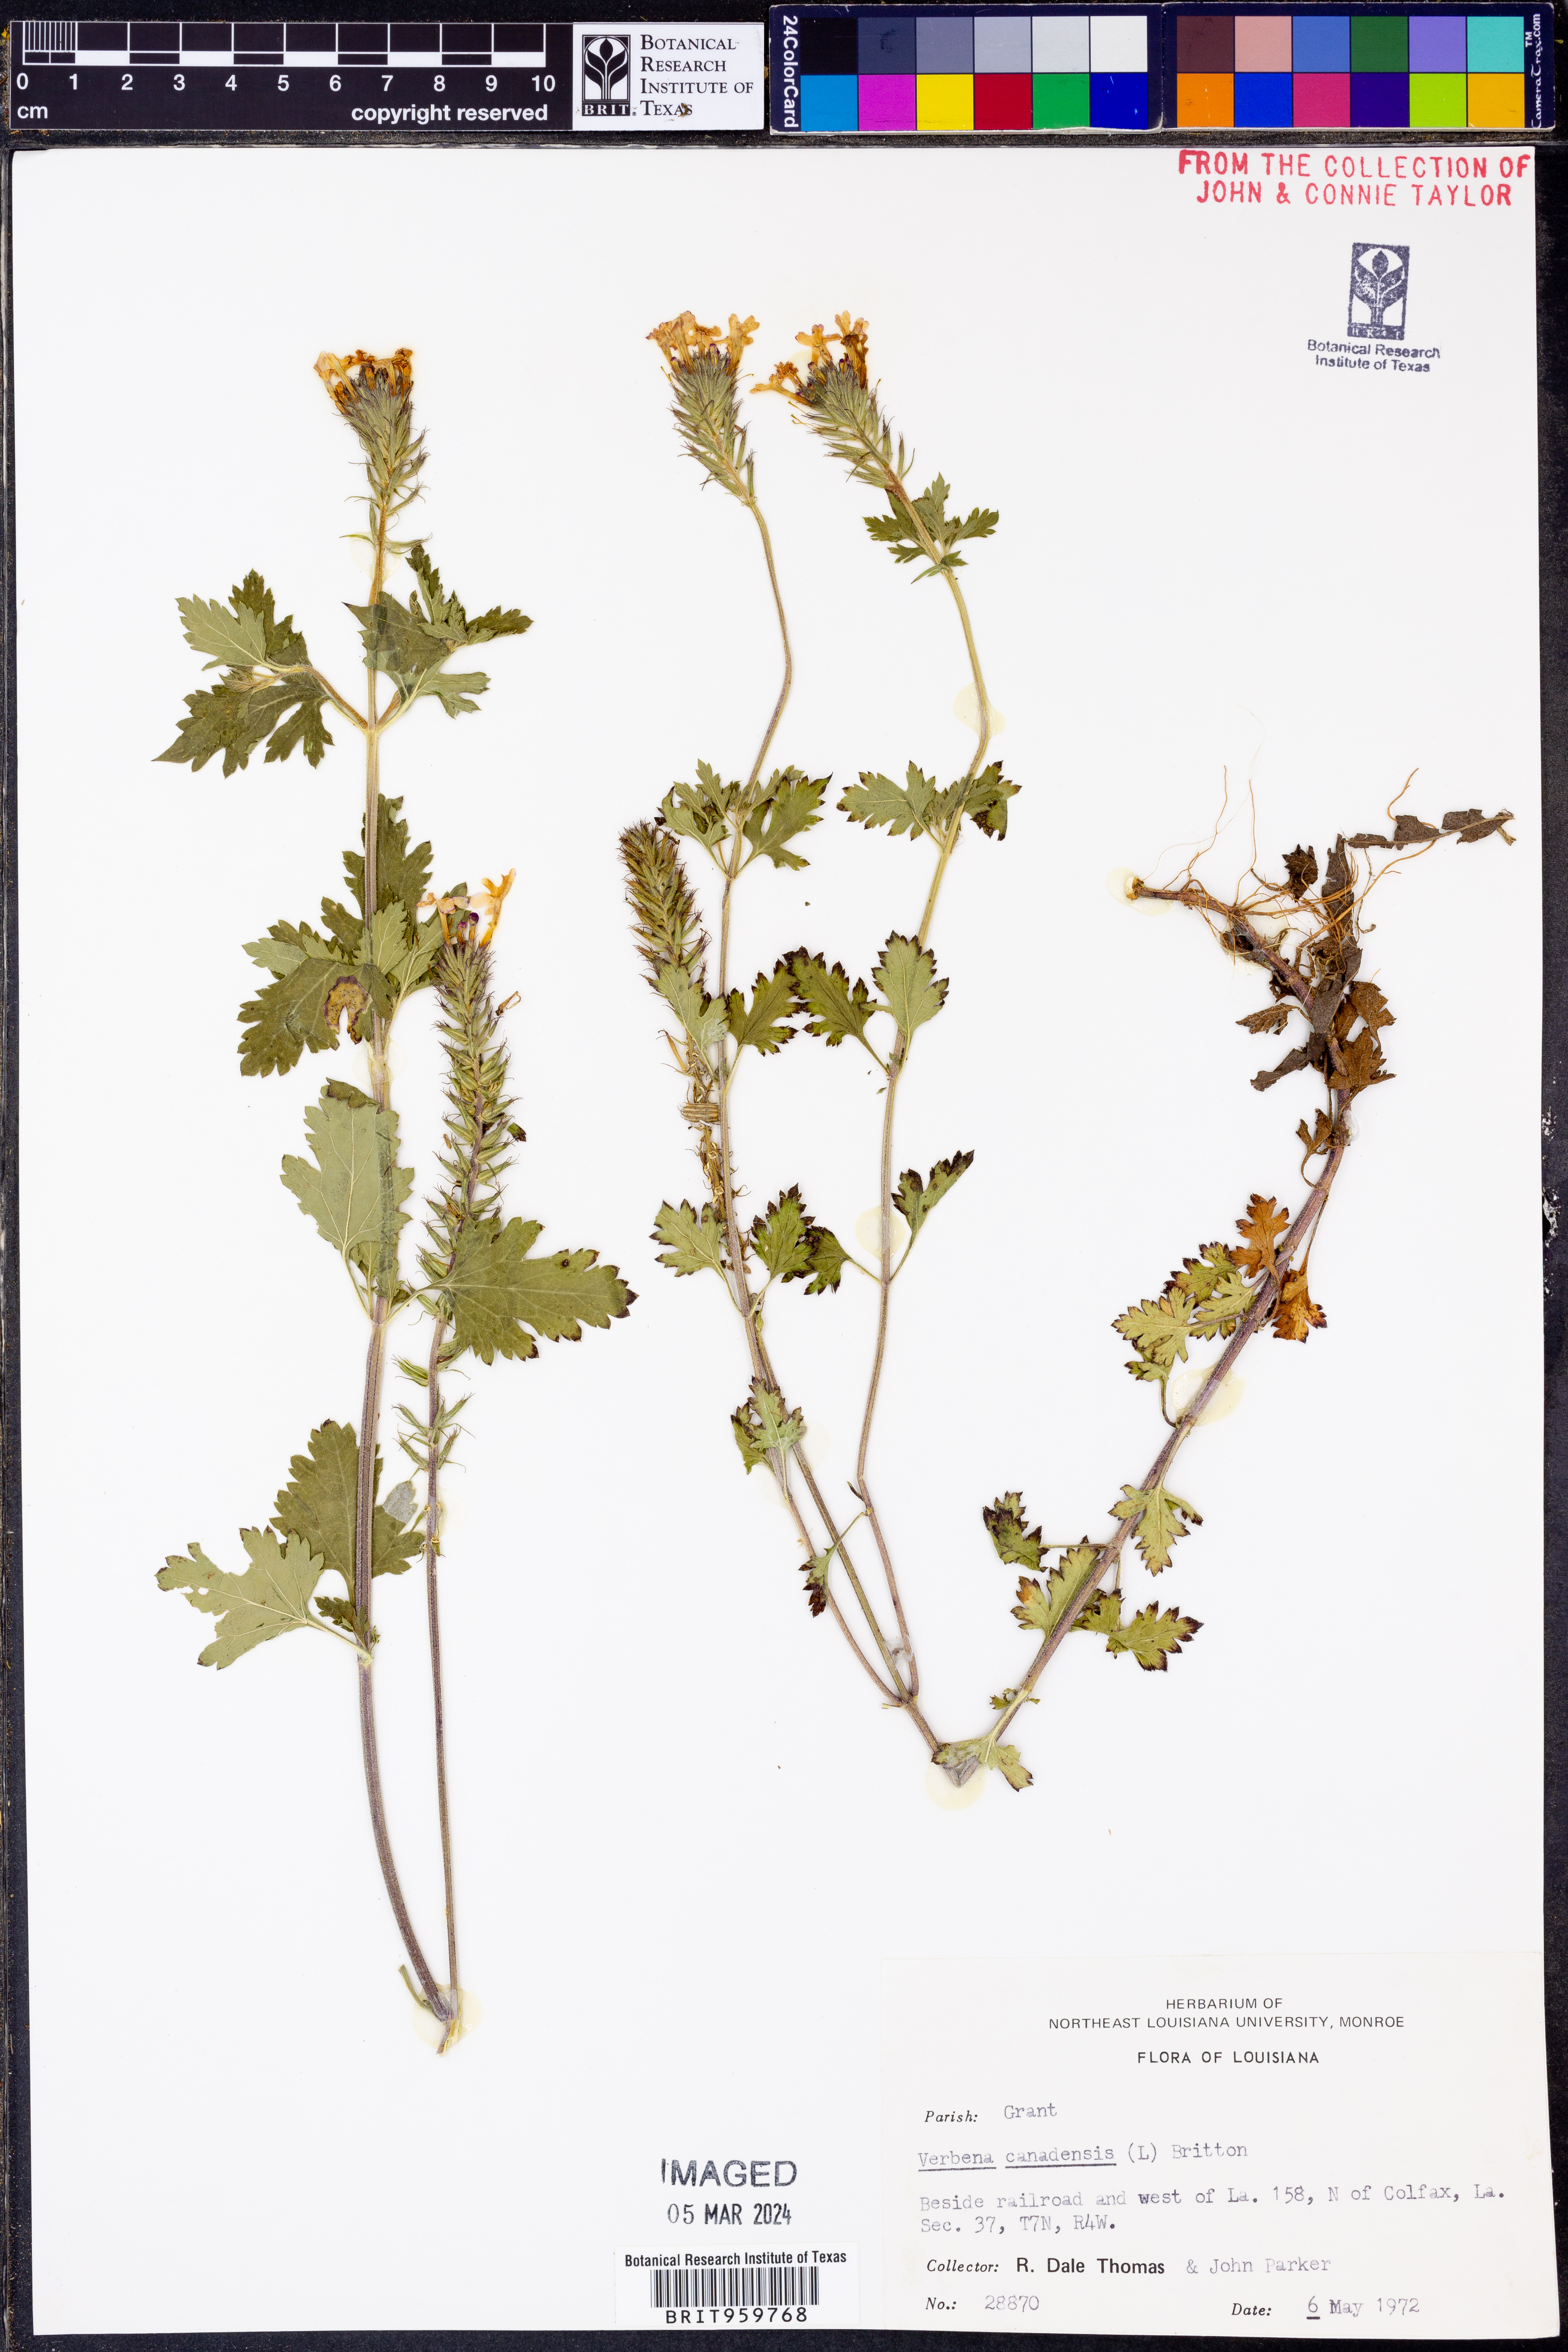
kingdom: Plantae
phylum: Tracheophyta
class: Magnoliopsida
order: Lamiales
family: Verbenaceae
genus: Verbena
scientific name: Verbena canadensis
